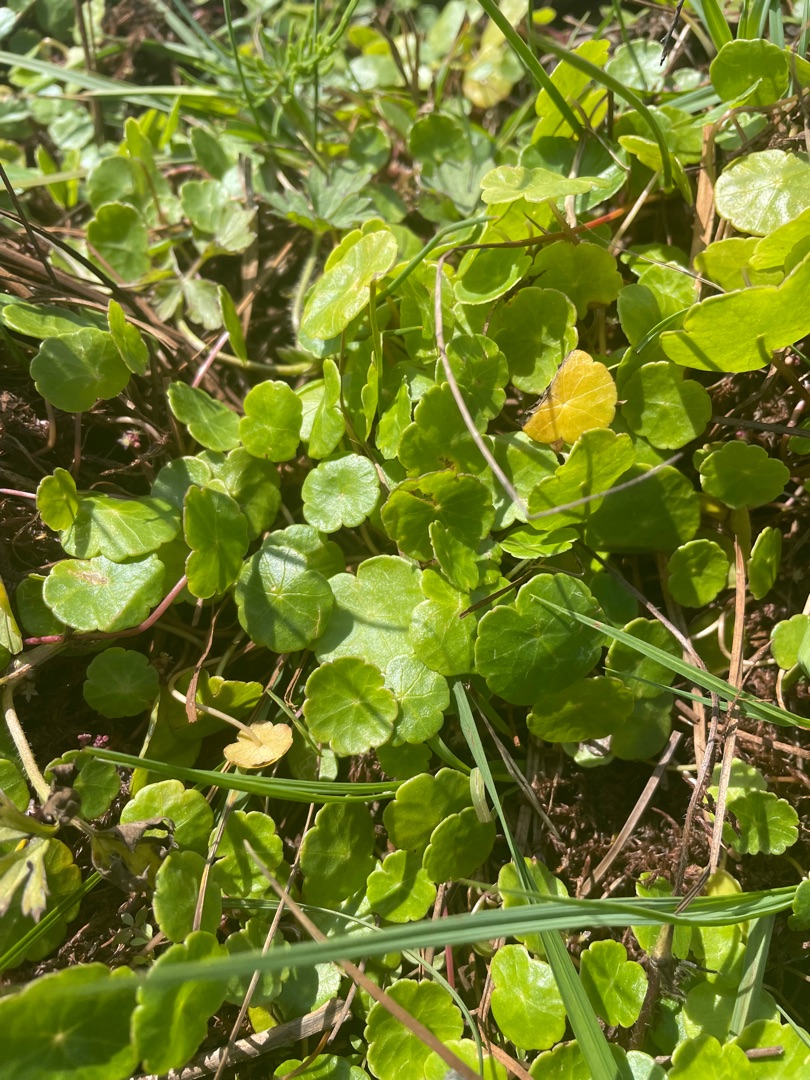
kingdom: Plantae
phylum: Tracheophyta
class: Magnoliopsida
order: Apiales
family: Araliaceae
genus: Hydrocotyle
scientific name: Hydrocotyle vulgaris
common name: Vandnavle
